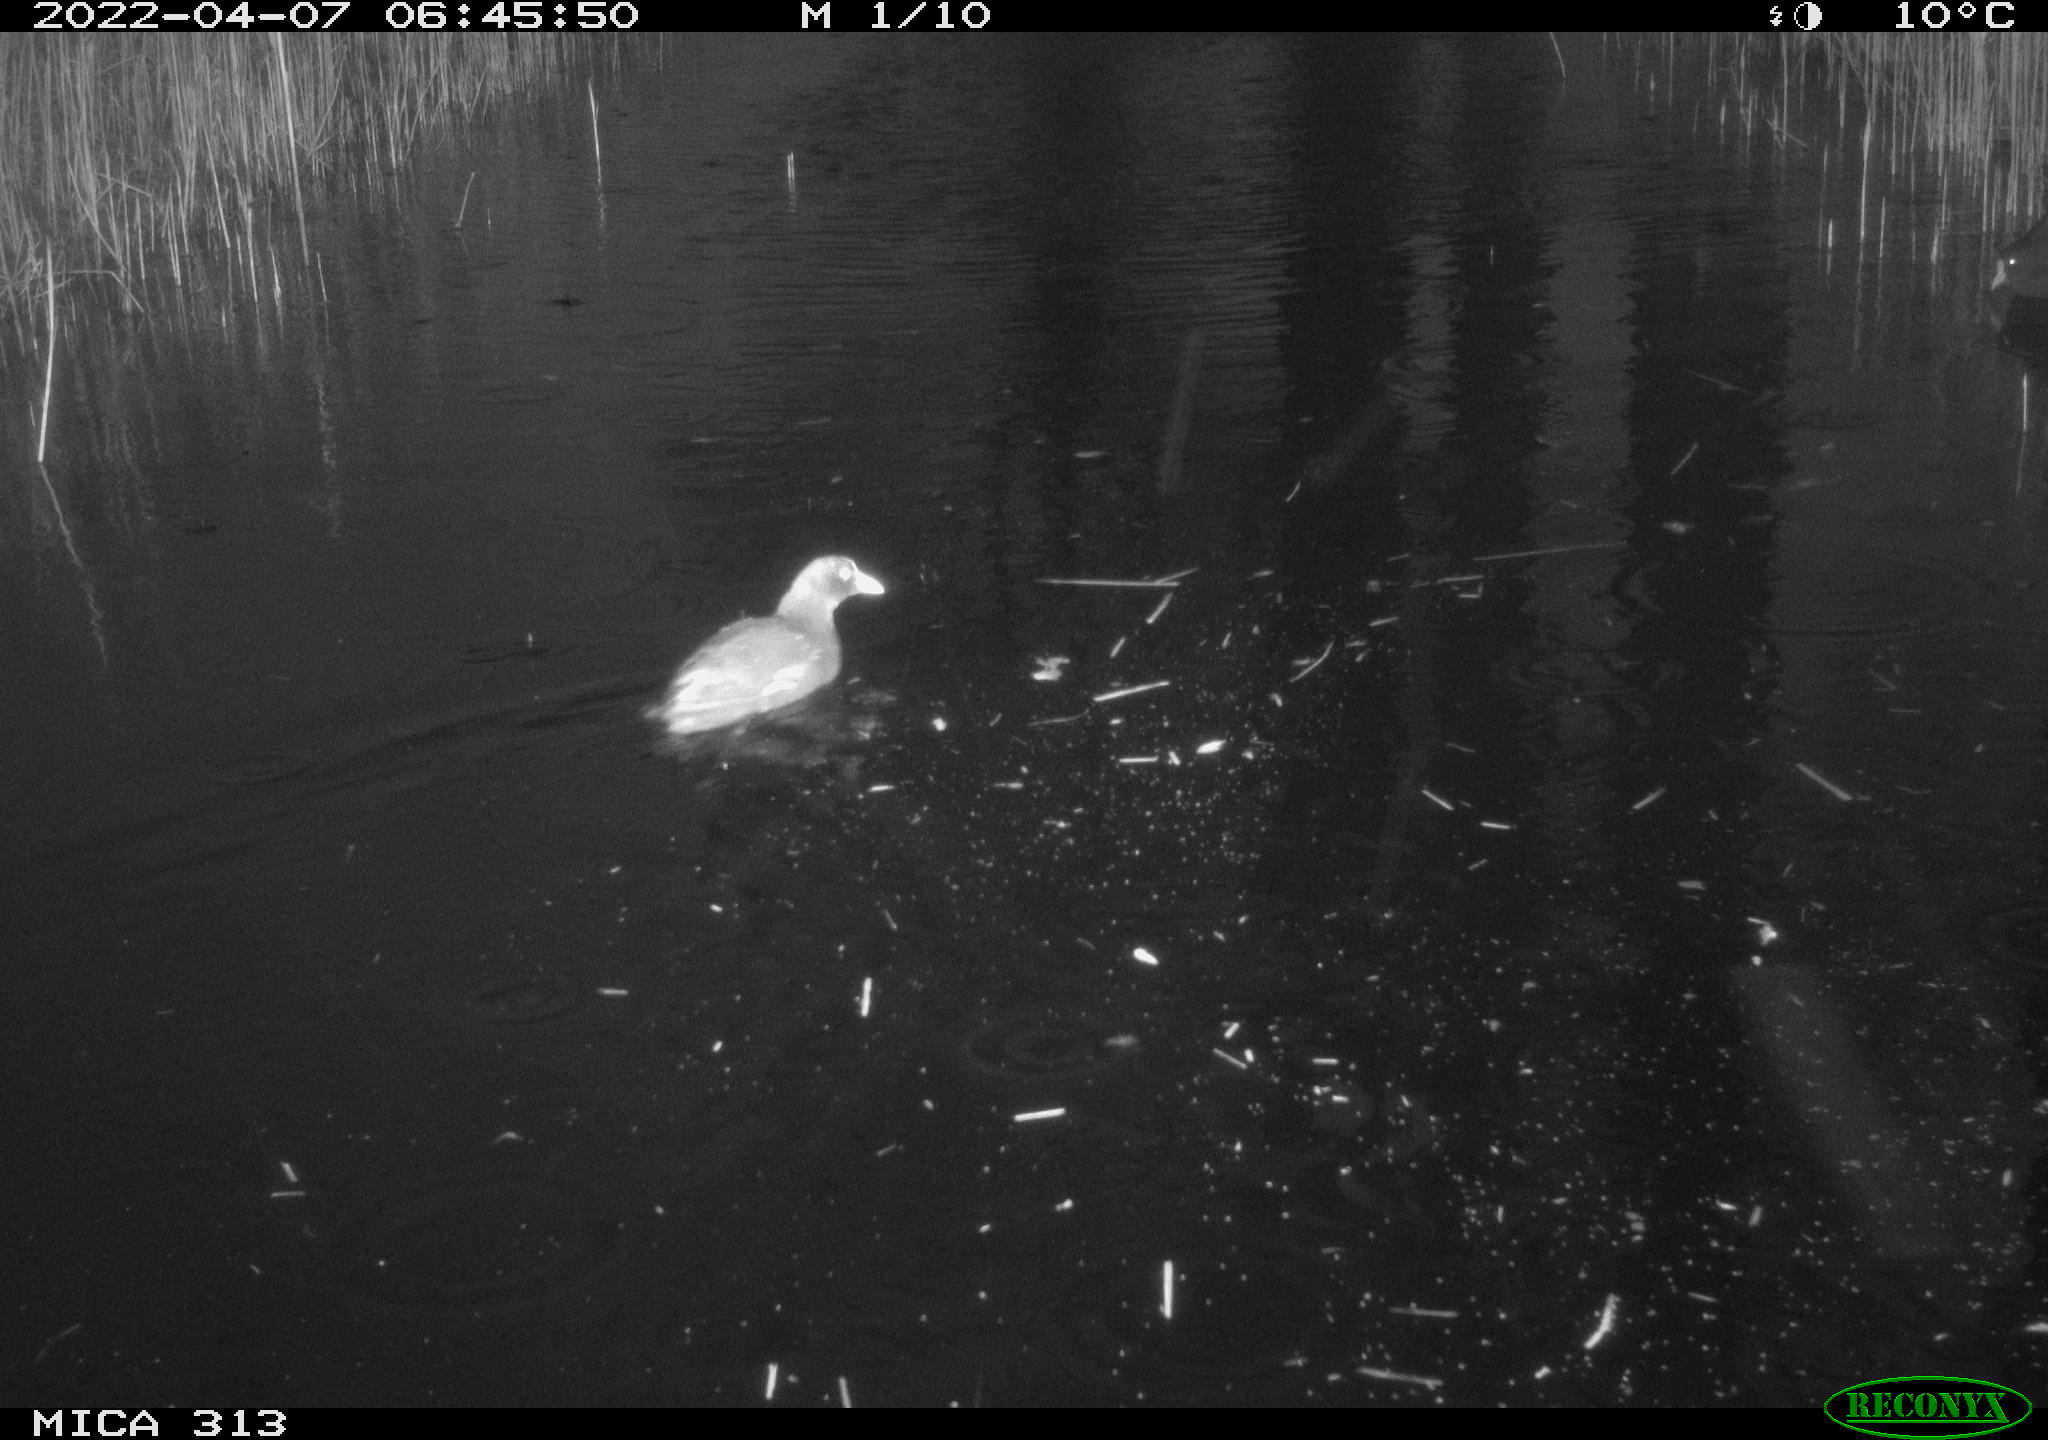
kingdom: Animalia
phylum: Chordata
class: Aves
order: Gruiformes
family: Rallidae
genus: Gallinula
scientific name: Gallinula chloropus
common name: Common moorhen
